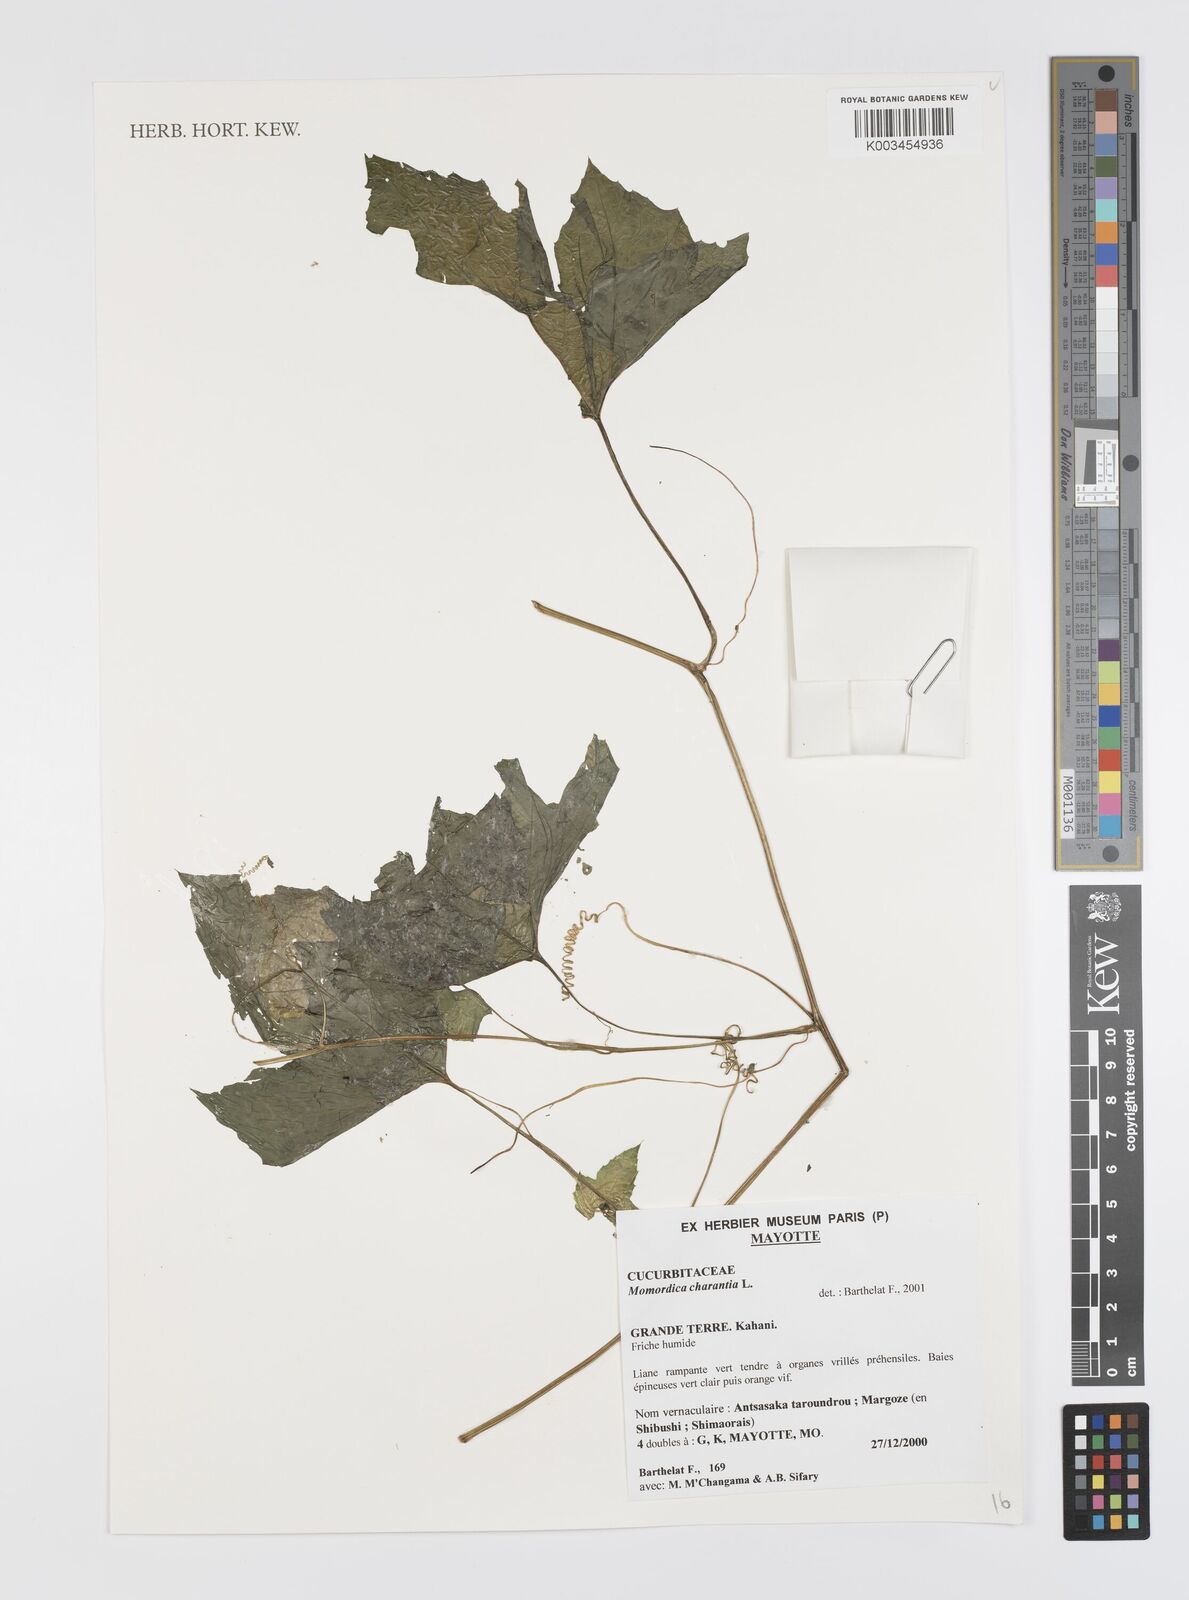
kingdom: Plantae
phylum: Tracheophyta
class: Magnoliopsida
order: Cucurbitales
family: Cucurbitaceae
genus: Momordica
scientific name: Momordica charantia
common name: Balsampear
